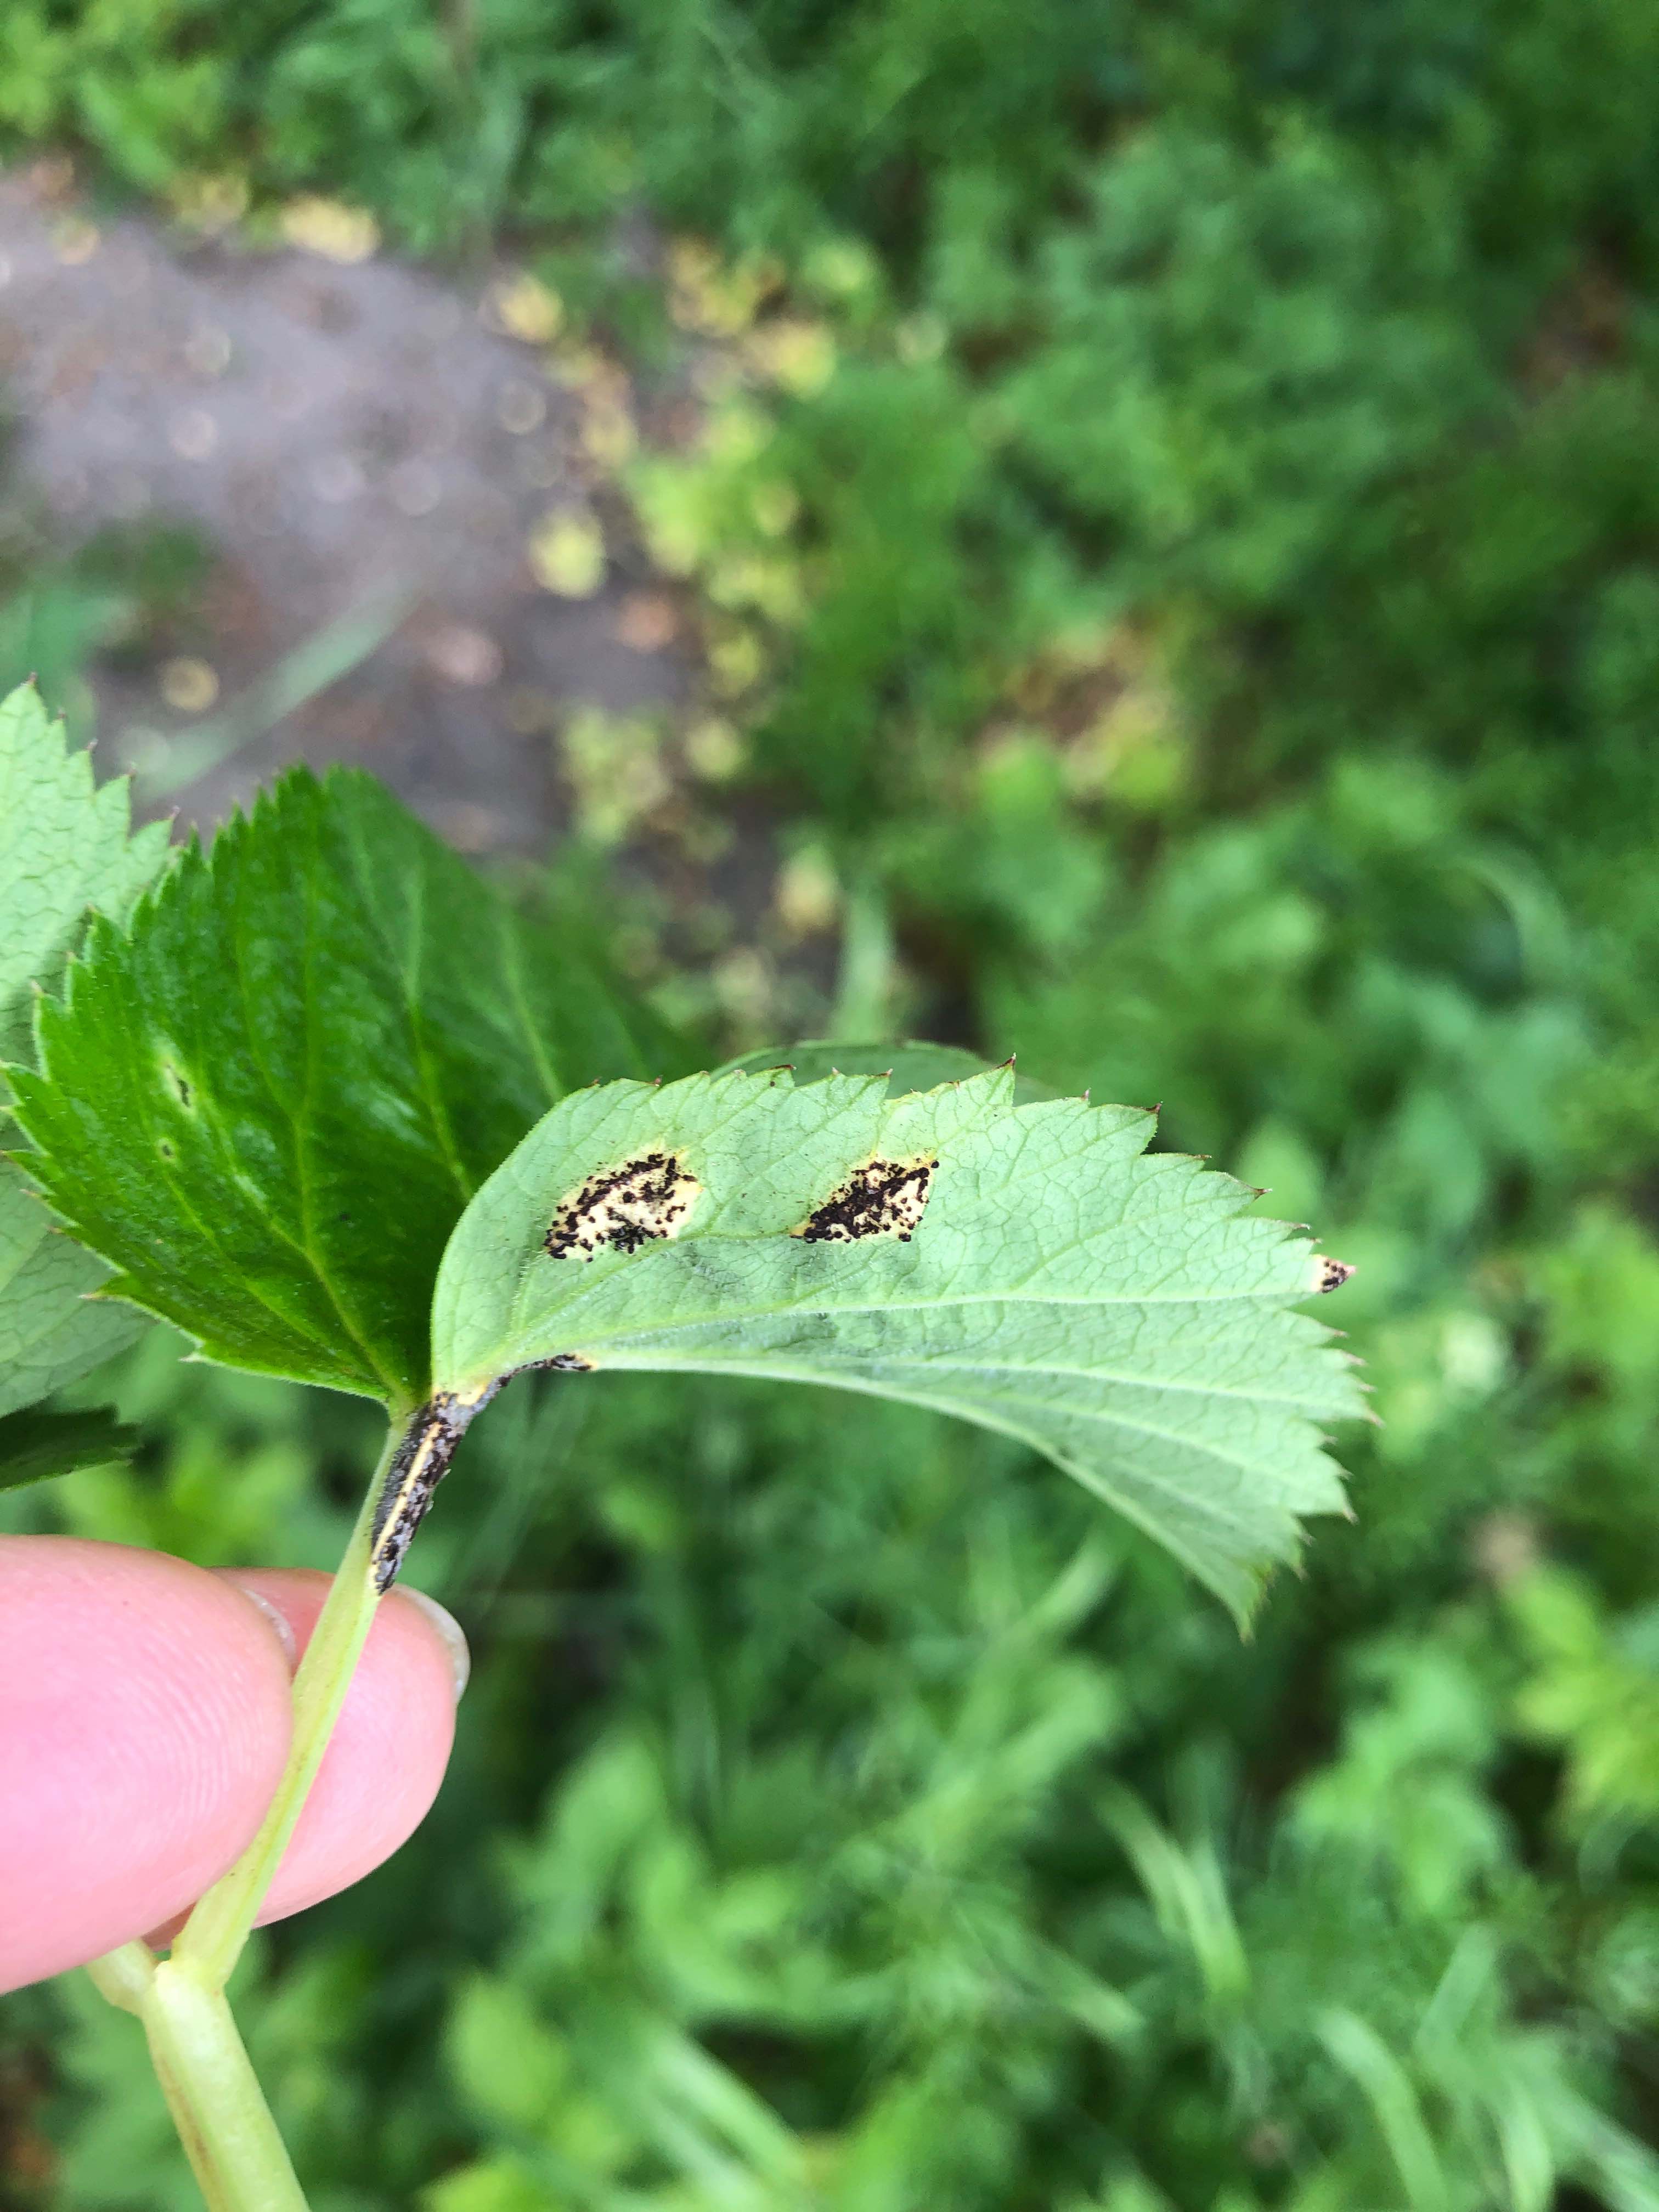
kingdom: Fungi
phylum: Basidiomycota
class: Pucciniomycetes
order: Pucciniales
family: Pucciniaceae
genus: Puccinia
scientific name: Puccinia
